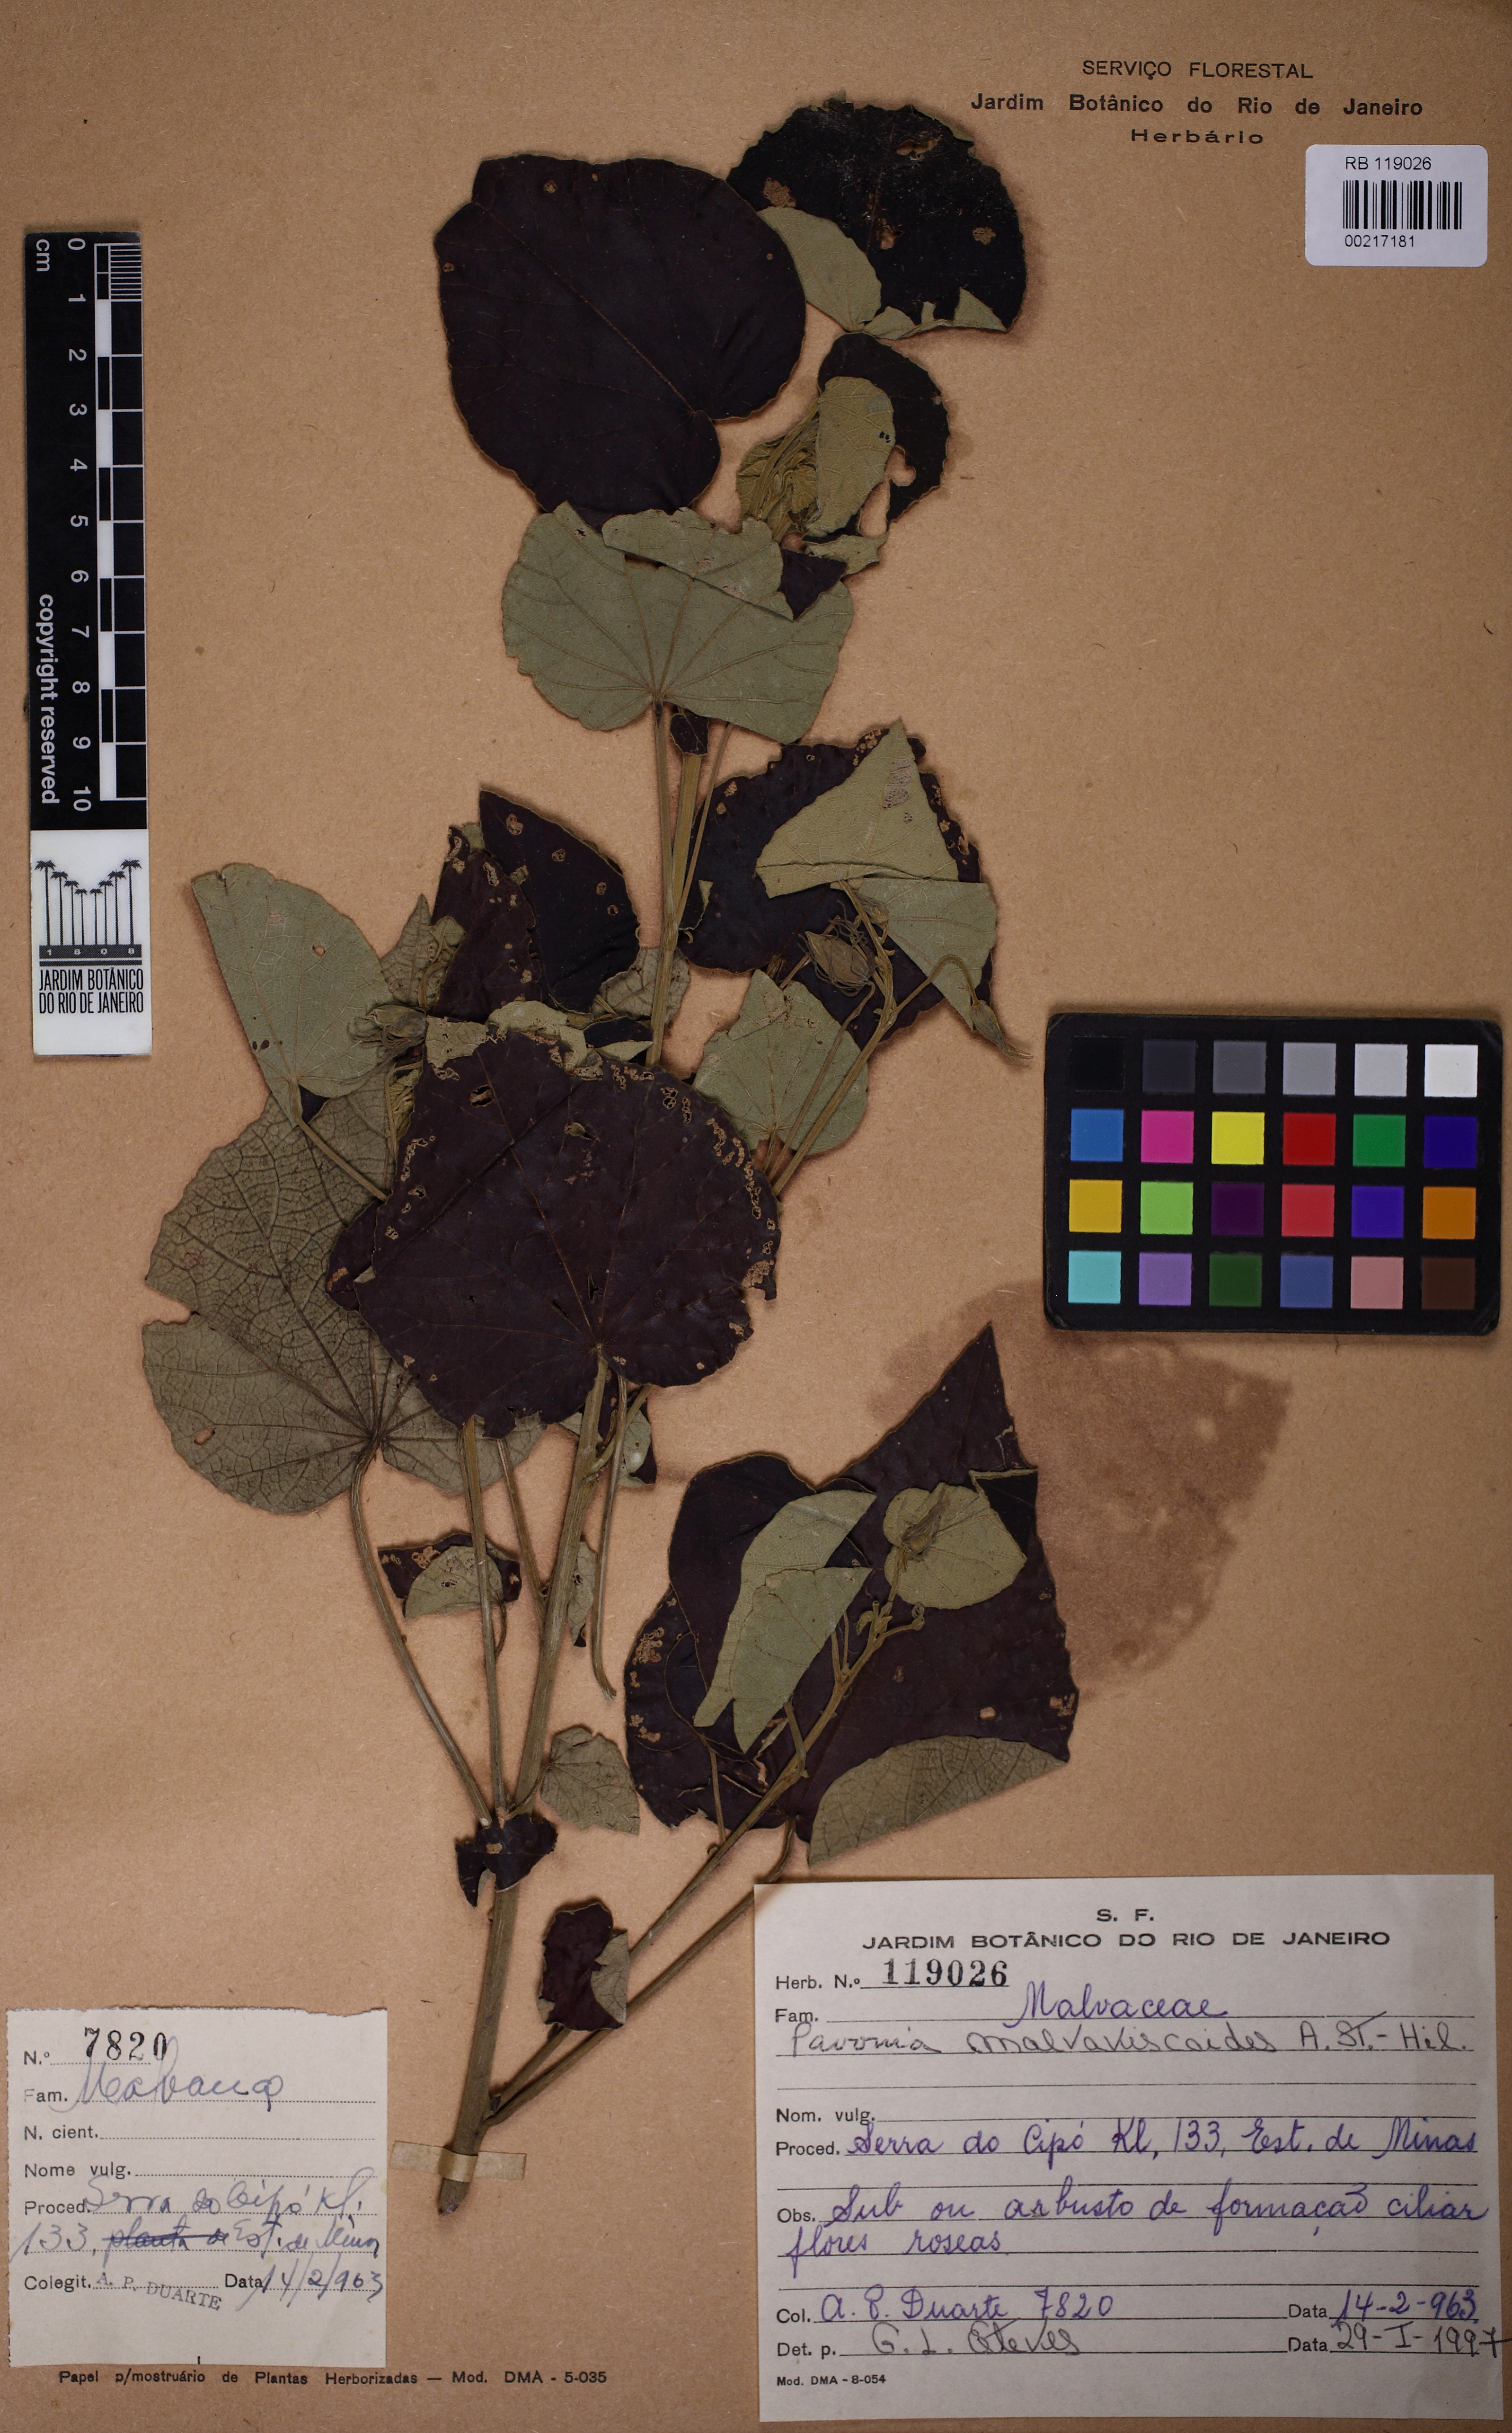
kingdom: Plantae
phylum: Tracheophyta
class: Magnoliopsida
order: Malvales
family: Malvaceae
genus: Pavonia
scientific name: Pavonia malvaviscoides
